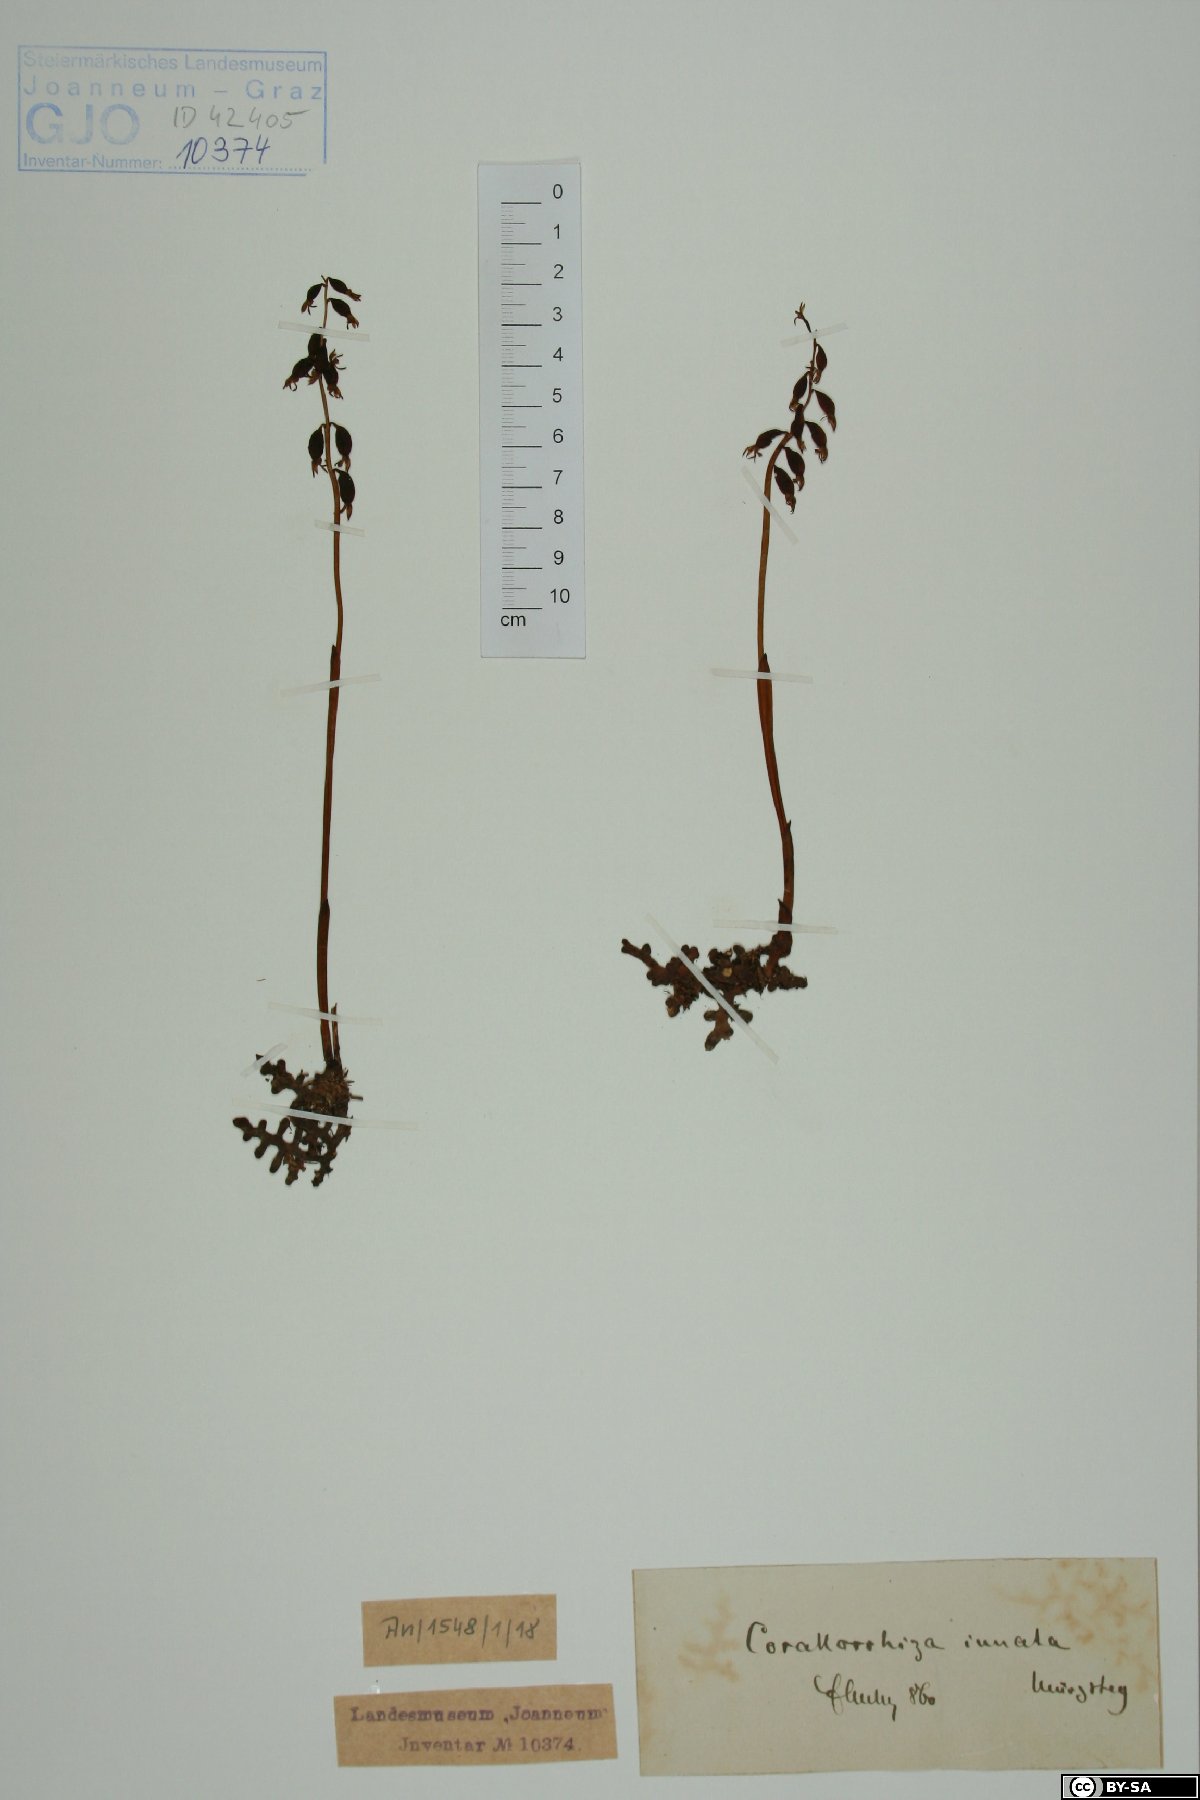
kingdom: Plantae
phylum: Tracheophyta
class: Liliopsida
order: Asparagales
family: Orchidaceae
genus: Corallorhiza
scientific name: Corallorhiza trifida
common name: Yellow coralroot
